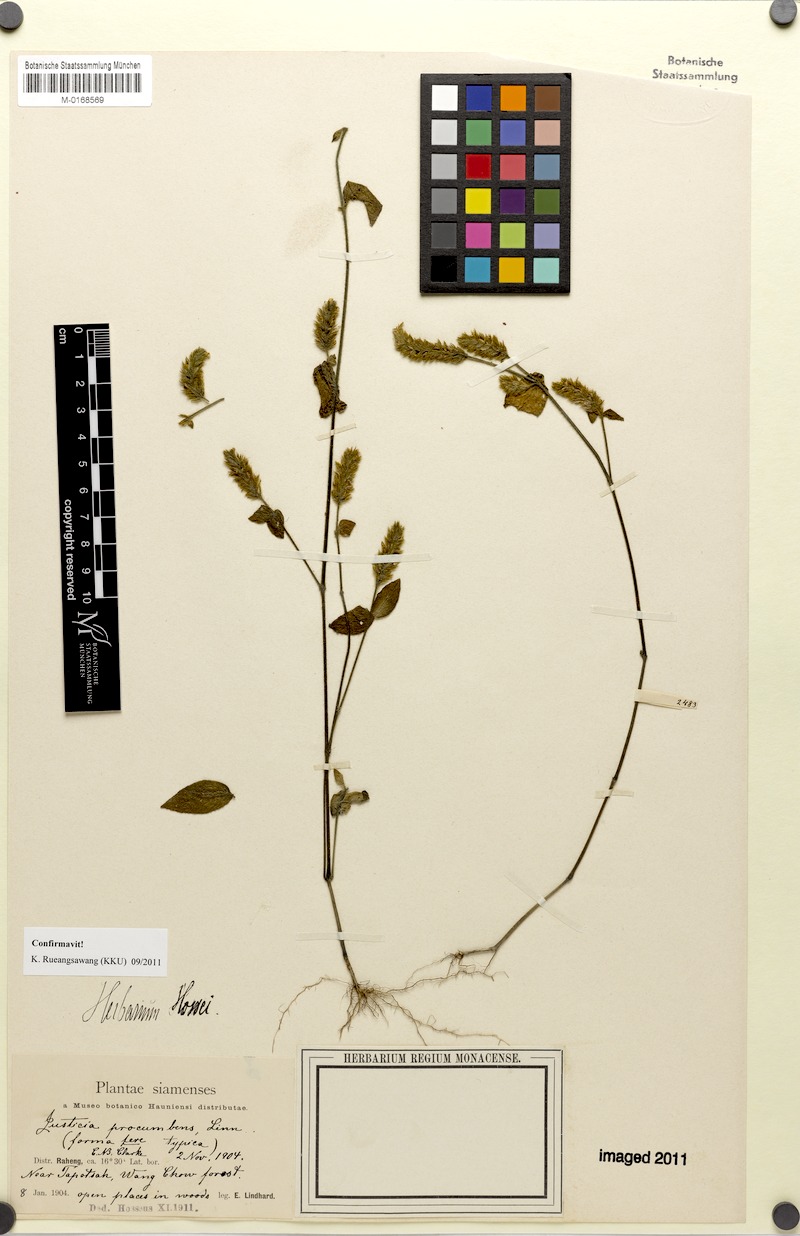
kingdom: Plantae
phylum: Tracheophyta
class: Magnoliopsida
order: Lamiales
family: Acanthaceae
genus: Rostellularia
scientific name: Rostellularia procumbens
